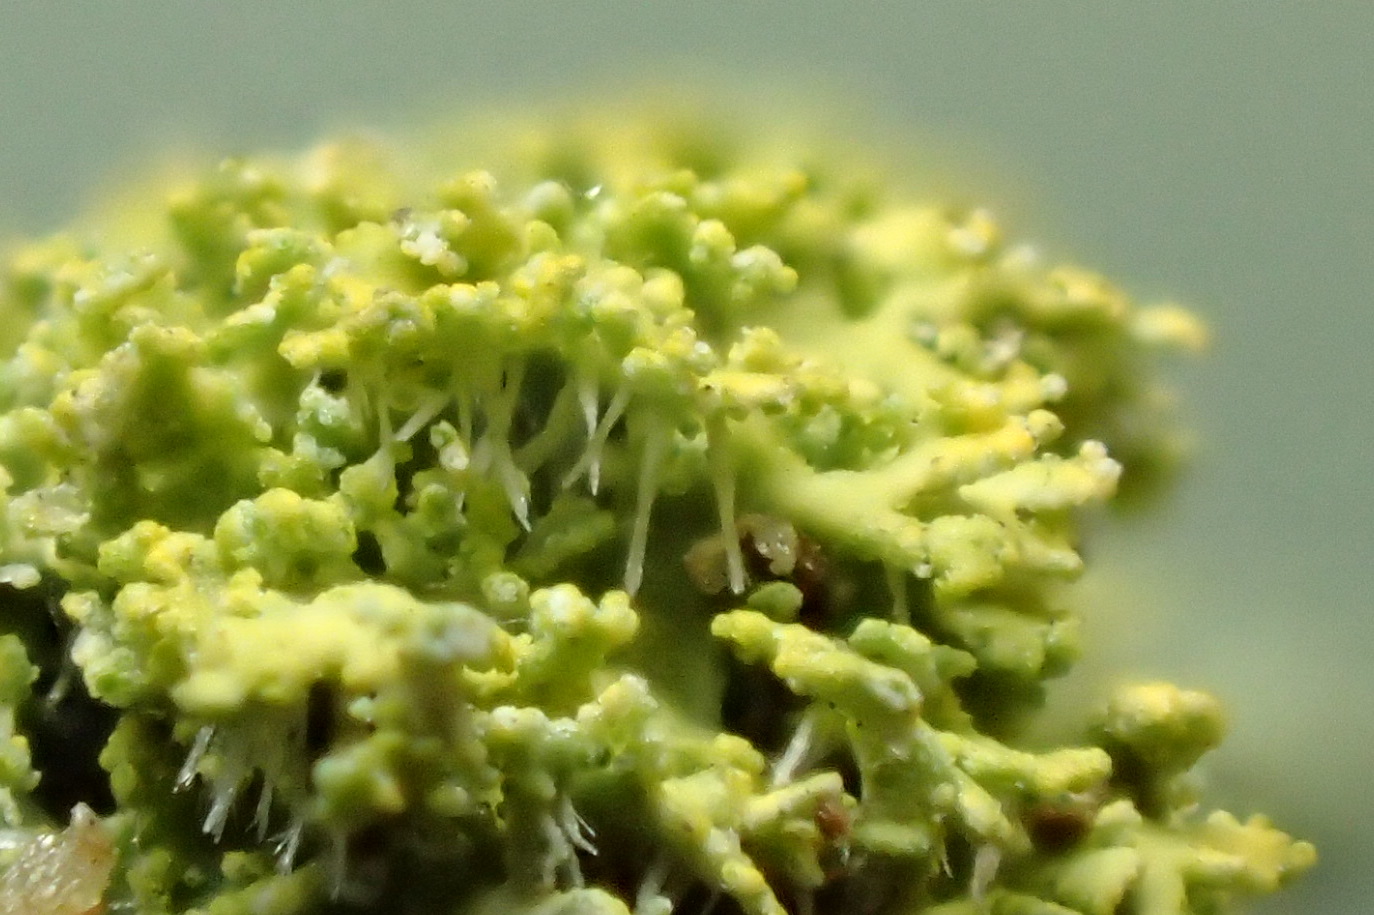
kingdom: Fungi
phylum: Ascomycota
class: Candelariomycetes
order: Candelariales
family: Candelariaceae
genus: Candelaria
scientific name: Candelaria concolor
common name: fliget smørlav
